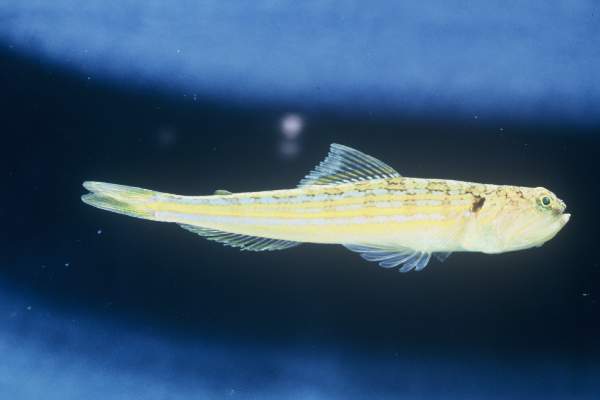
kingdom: Animalia
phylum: Chordata
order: Aulopiformes
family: Synodontidae
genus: Trachinocephalus
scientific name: Trachinocephalus
